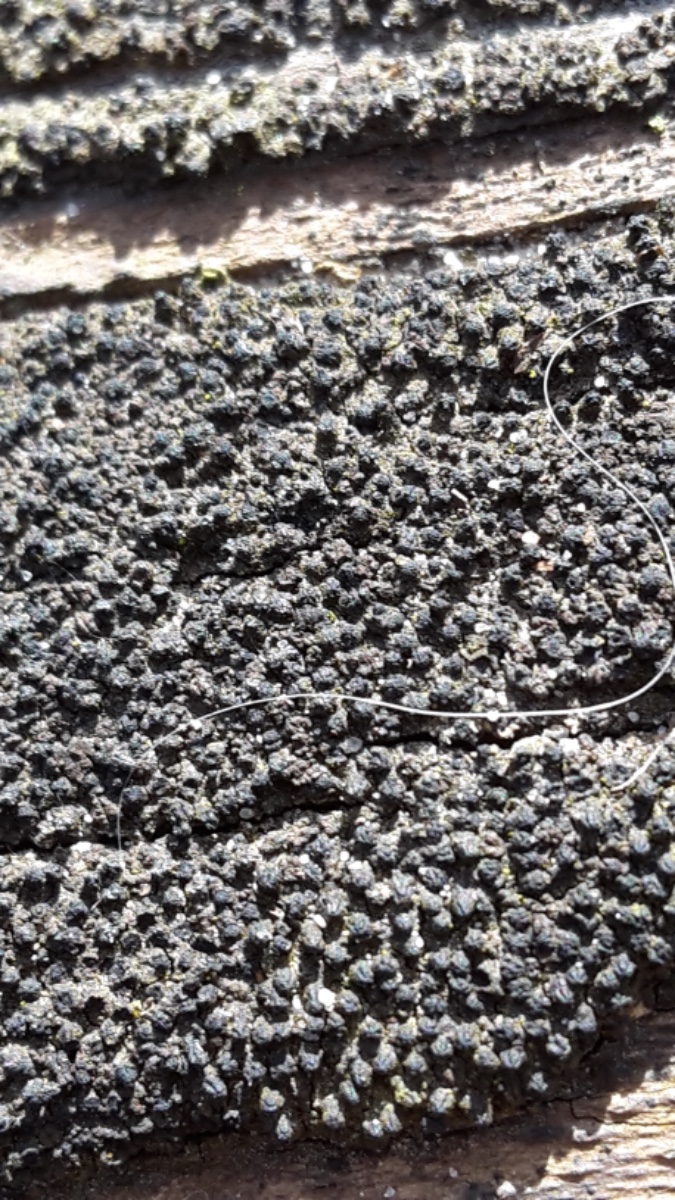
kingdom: Fungi
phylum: Ascomycota
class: Sordariomycetes
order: Xylariales
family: Diatrypaceae
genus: Eutypa
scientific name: Eutypa spinosa
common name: grov kulskorpe
